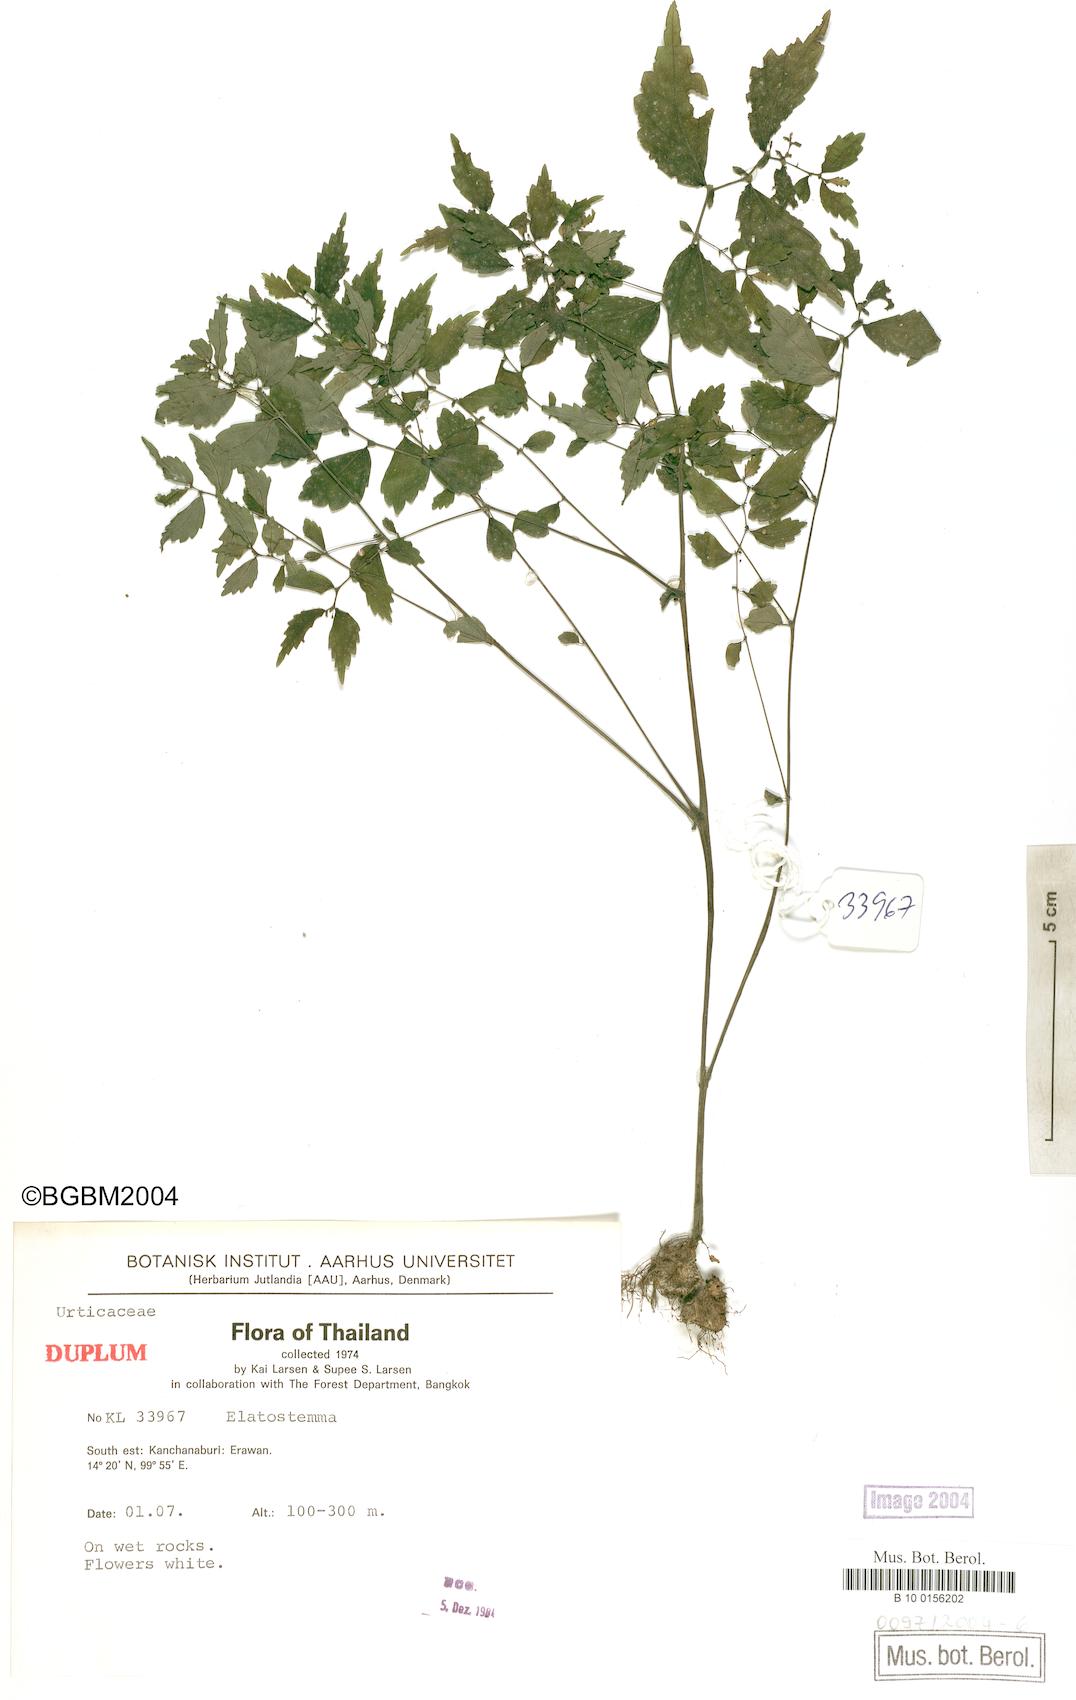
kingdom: Plantae
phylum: Tracheophyta
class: Magnoliopsida
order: Rosales
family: Urticaceae
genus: Elatostema
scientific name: Elatostema
